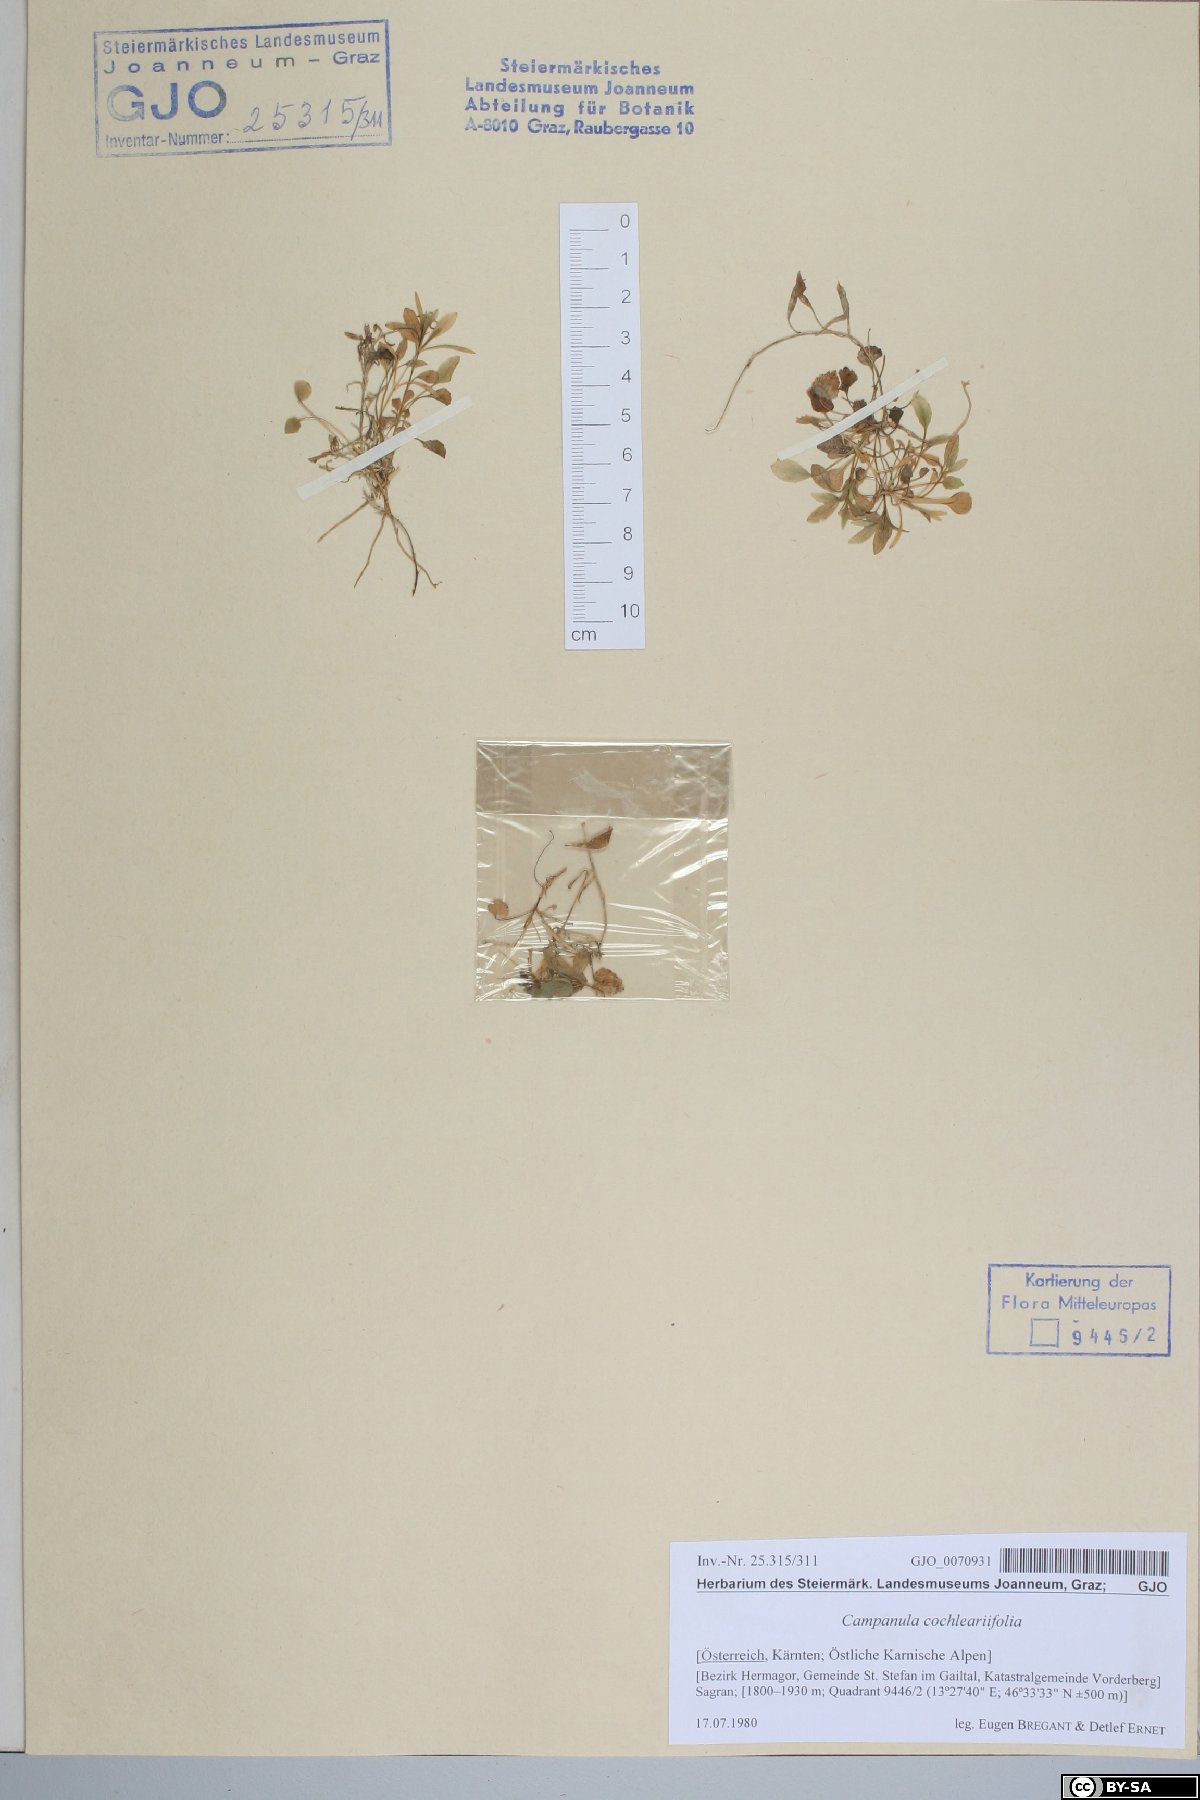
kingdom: Plantae
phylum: Tracheophyta
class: Magnoliopsida
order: Asterales
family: Campanulaceae
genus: Campanula
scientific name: Campanula cochleariifolia
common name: Fairies'-thimbles
